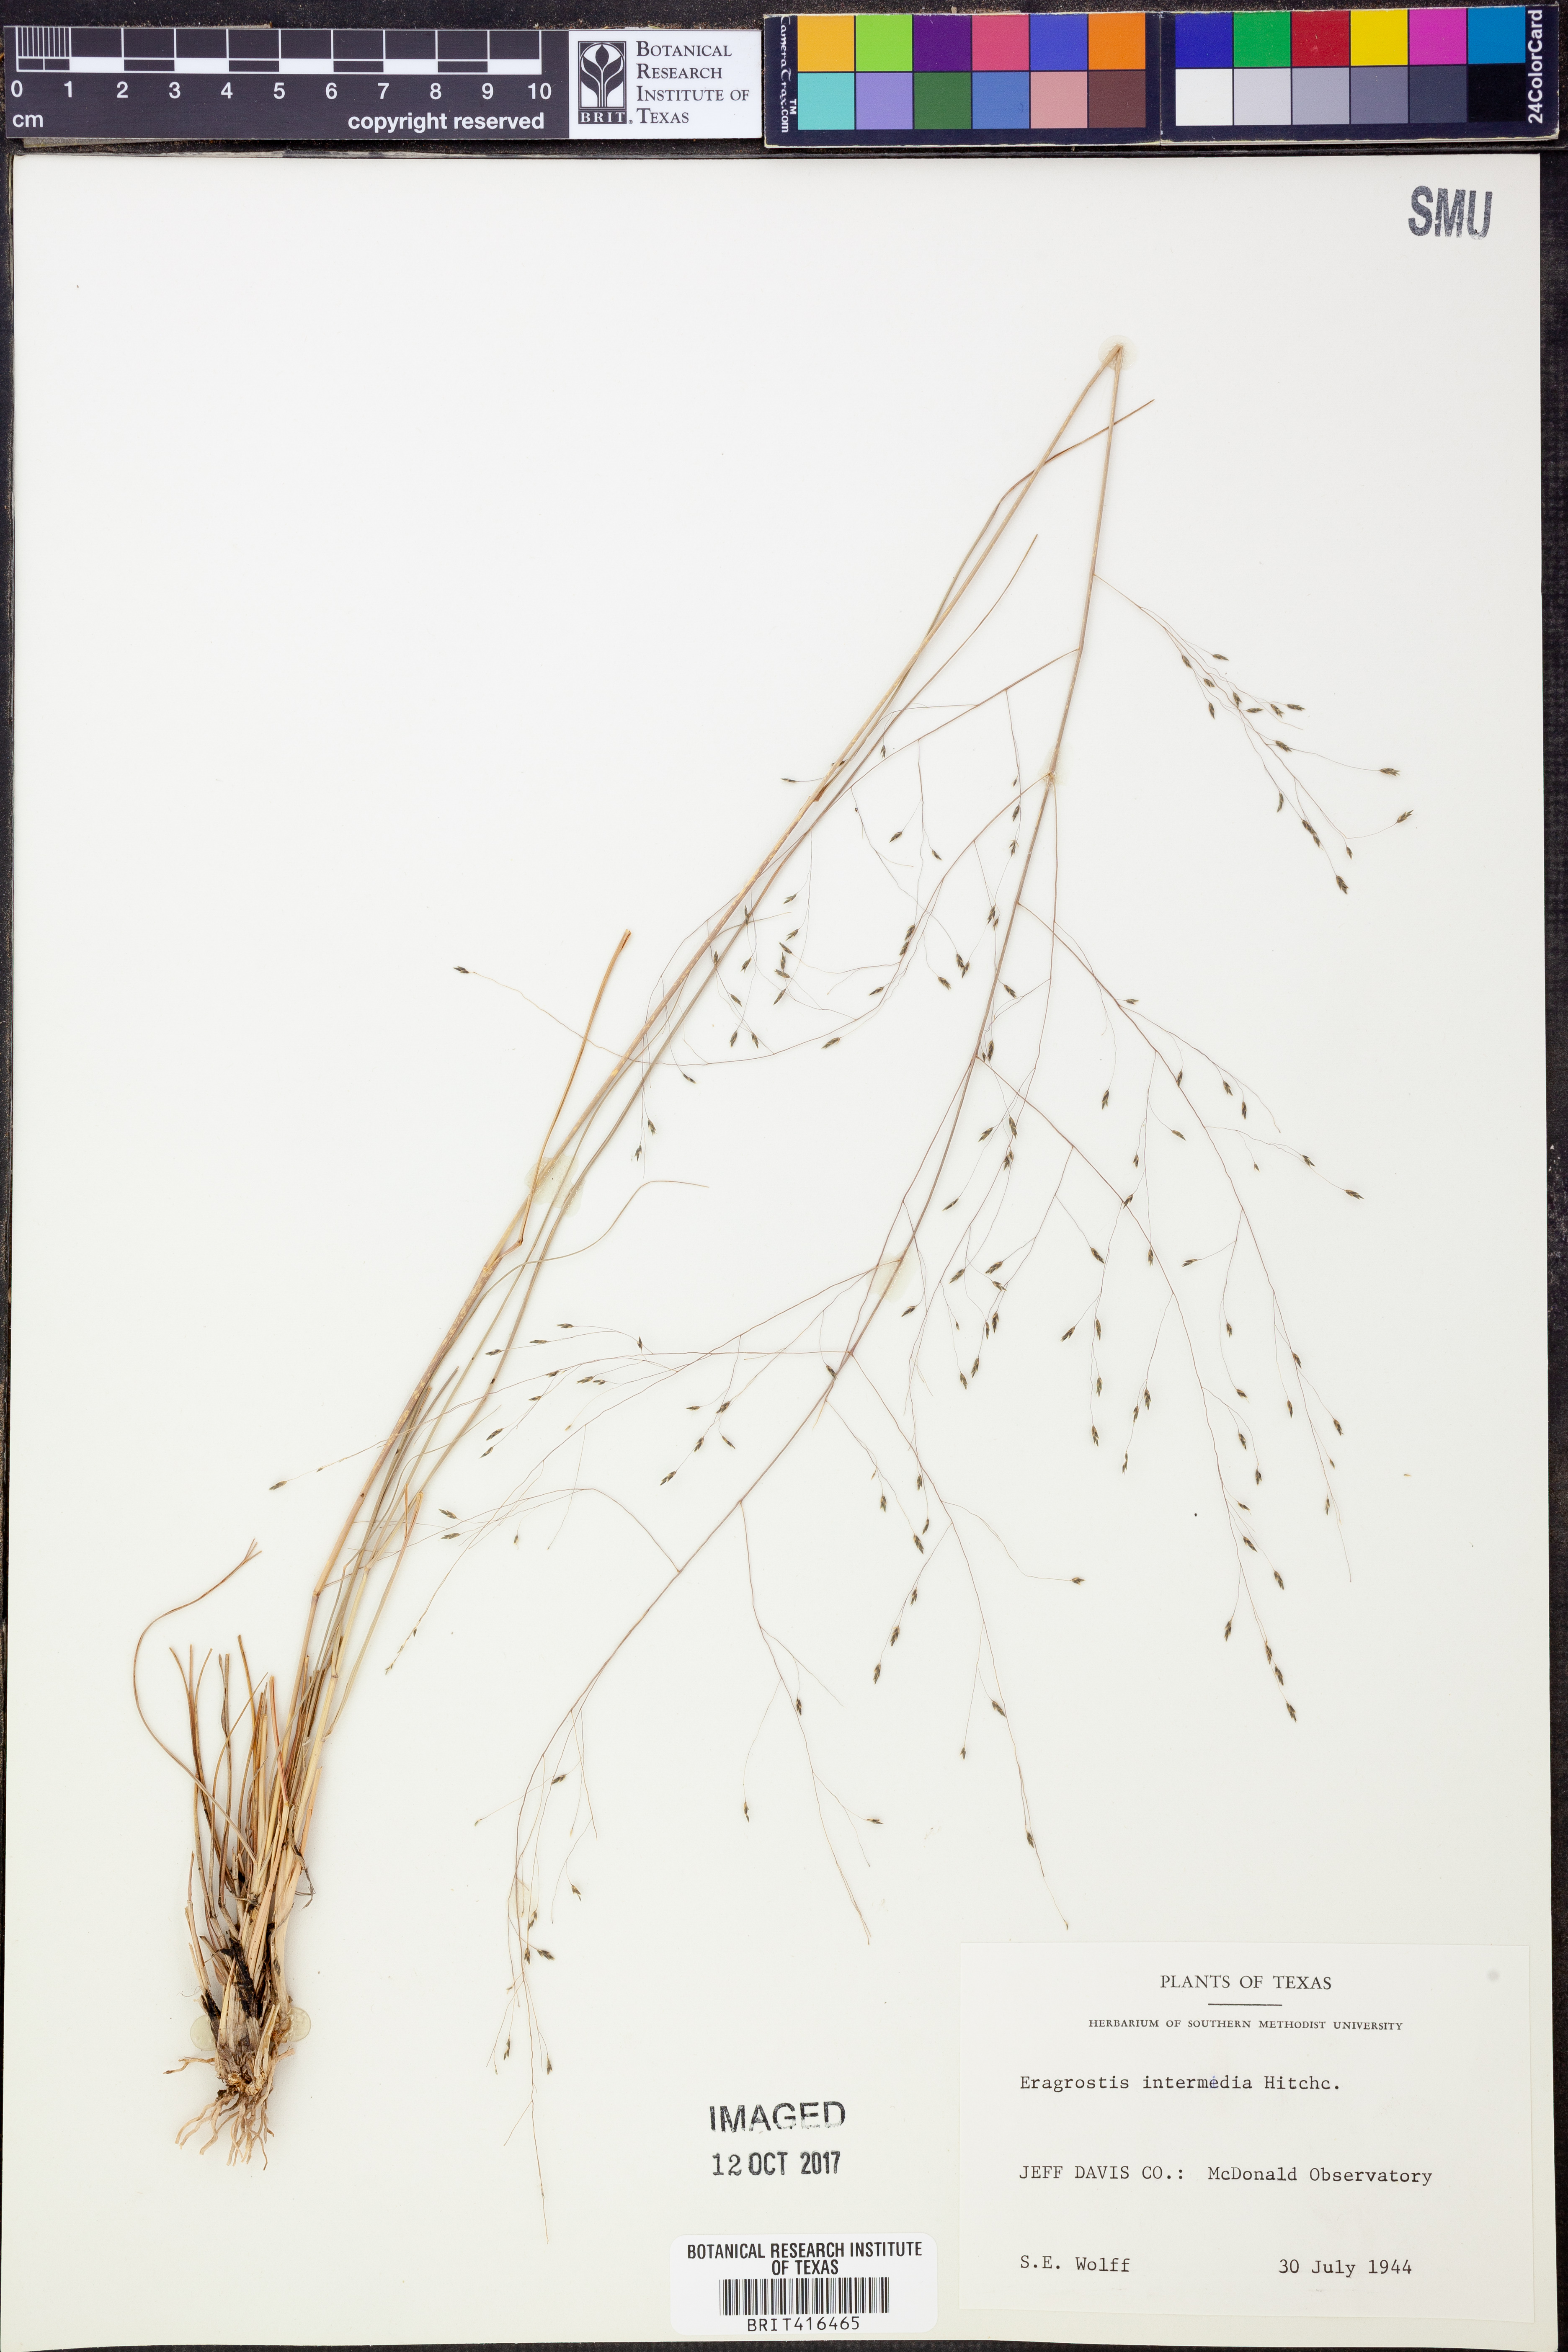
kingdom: Plantae
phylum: Tracheophyta
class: Liliopsida
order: Poales
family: Poaceae
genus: Eragrostis
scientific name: Eragrostis intermedia
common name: Plains love grass
